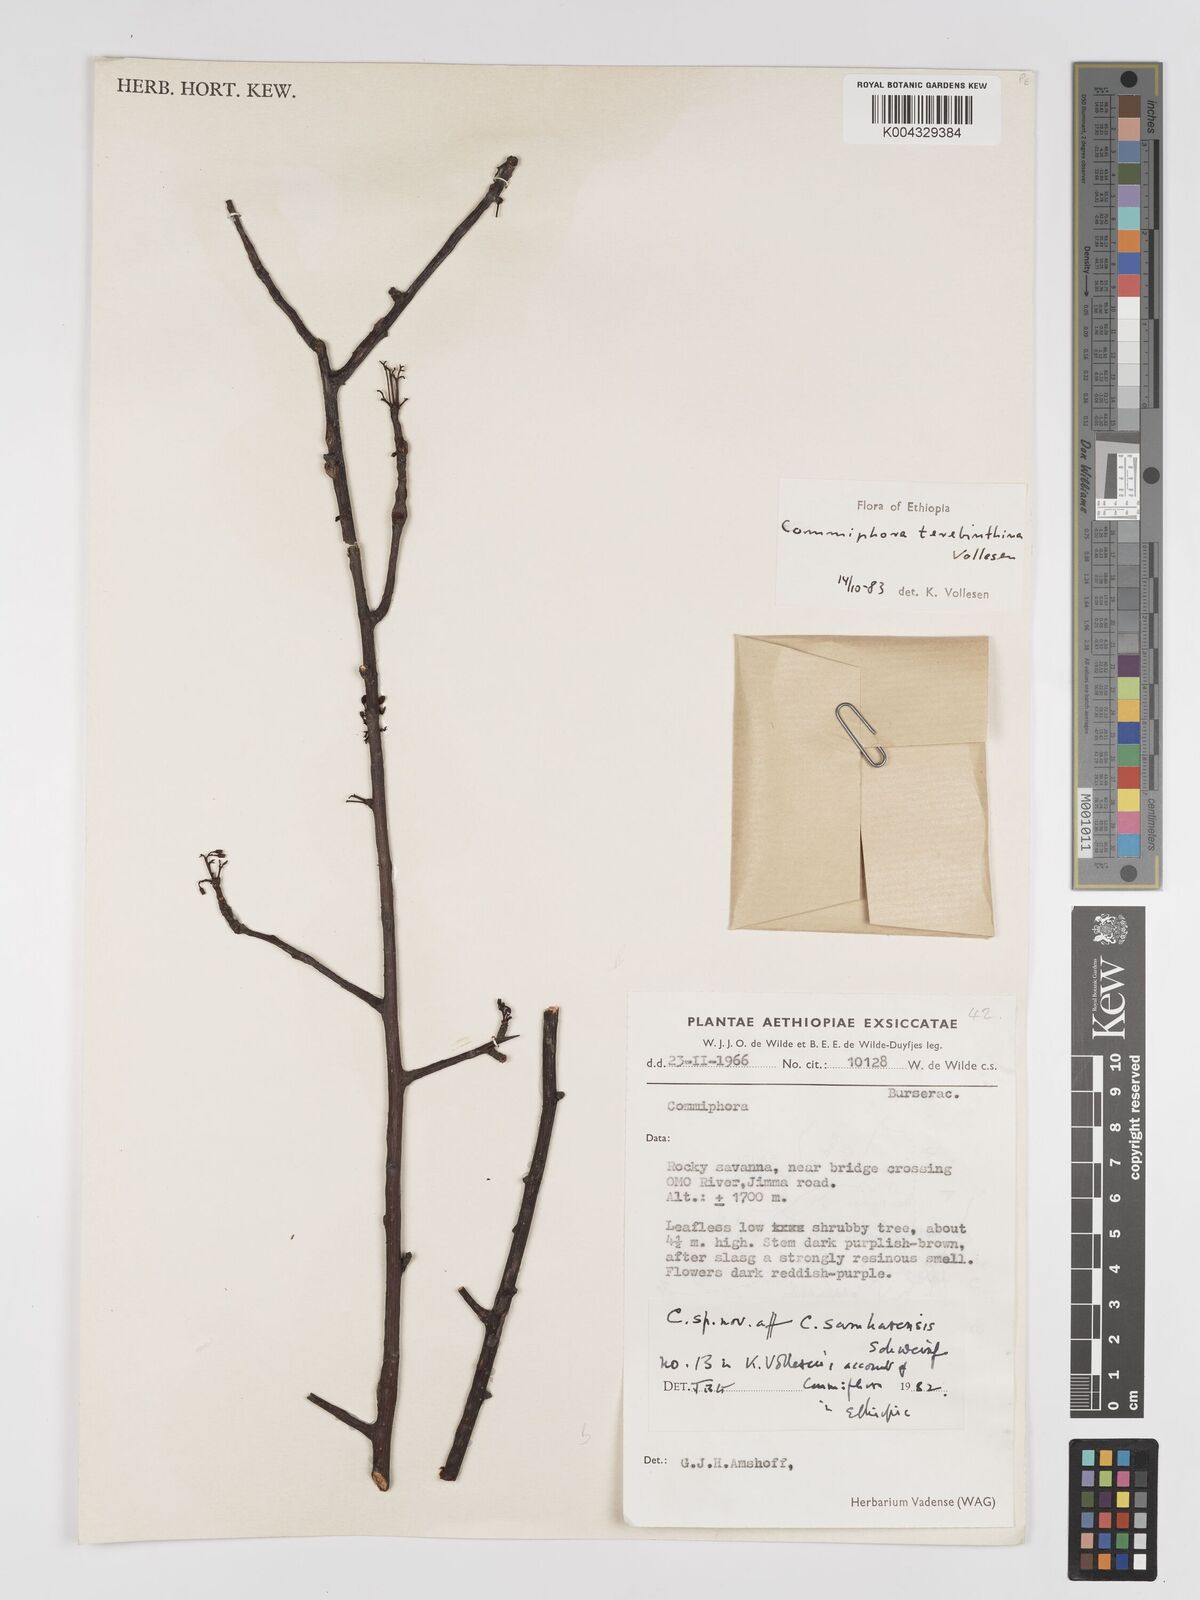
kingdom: Plantae
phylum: Tracheophyta
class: Magnoliopsida
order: Sapindales
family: Burseraceae
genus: Commiphora
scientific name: Commiphora samharensis
